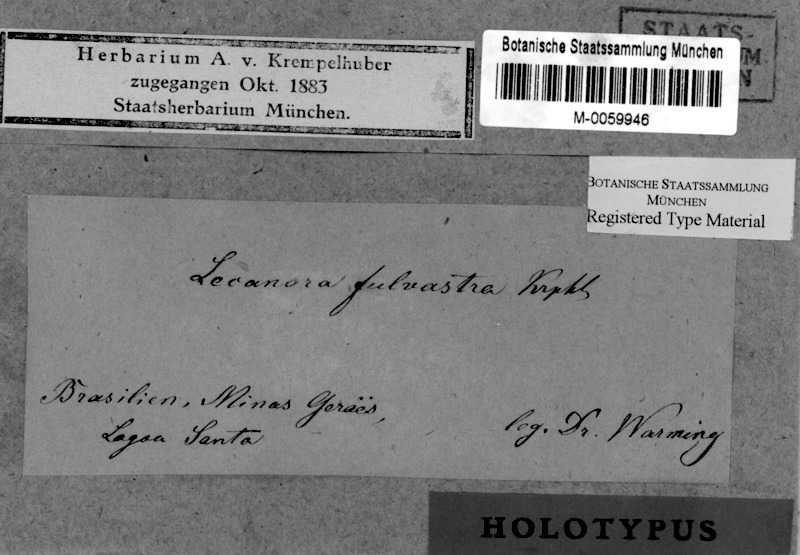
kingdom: Fungi
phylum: Ascomycota
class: Lecanoromycetes
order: Lecanorales
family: Lecanoraceae
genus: Lecanora
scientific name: Lecanora fulvastra
